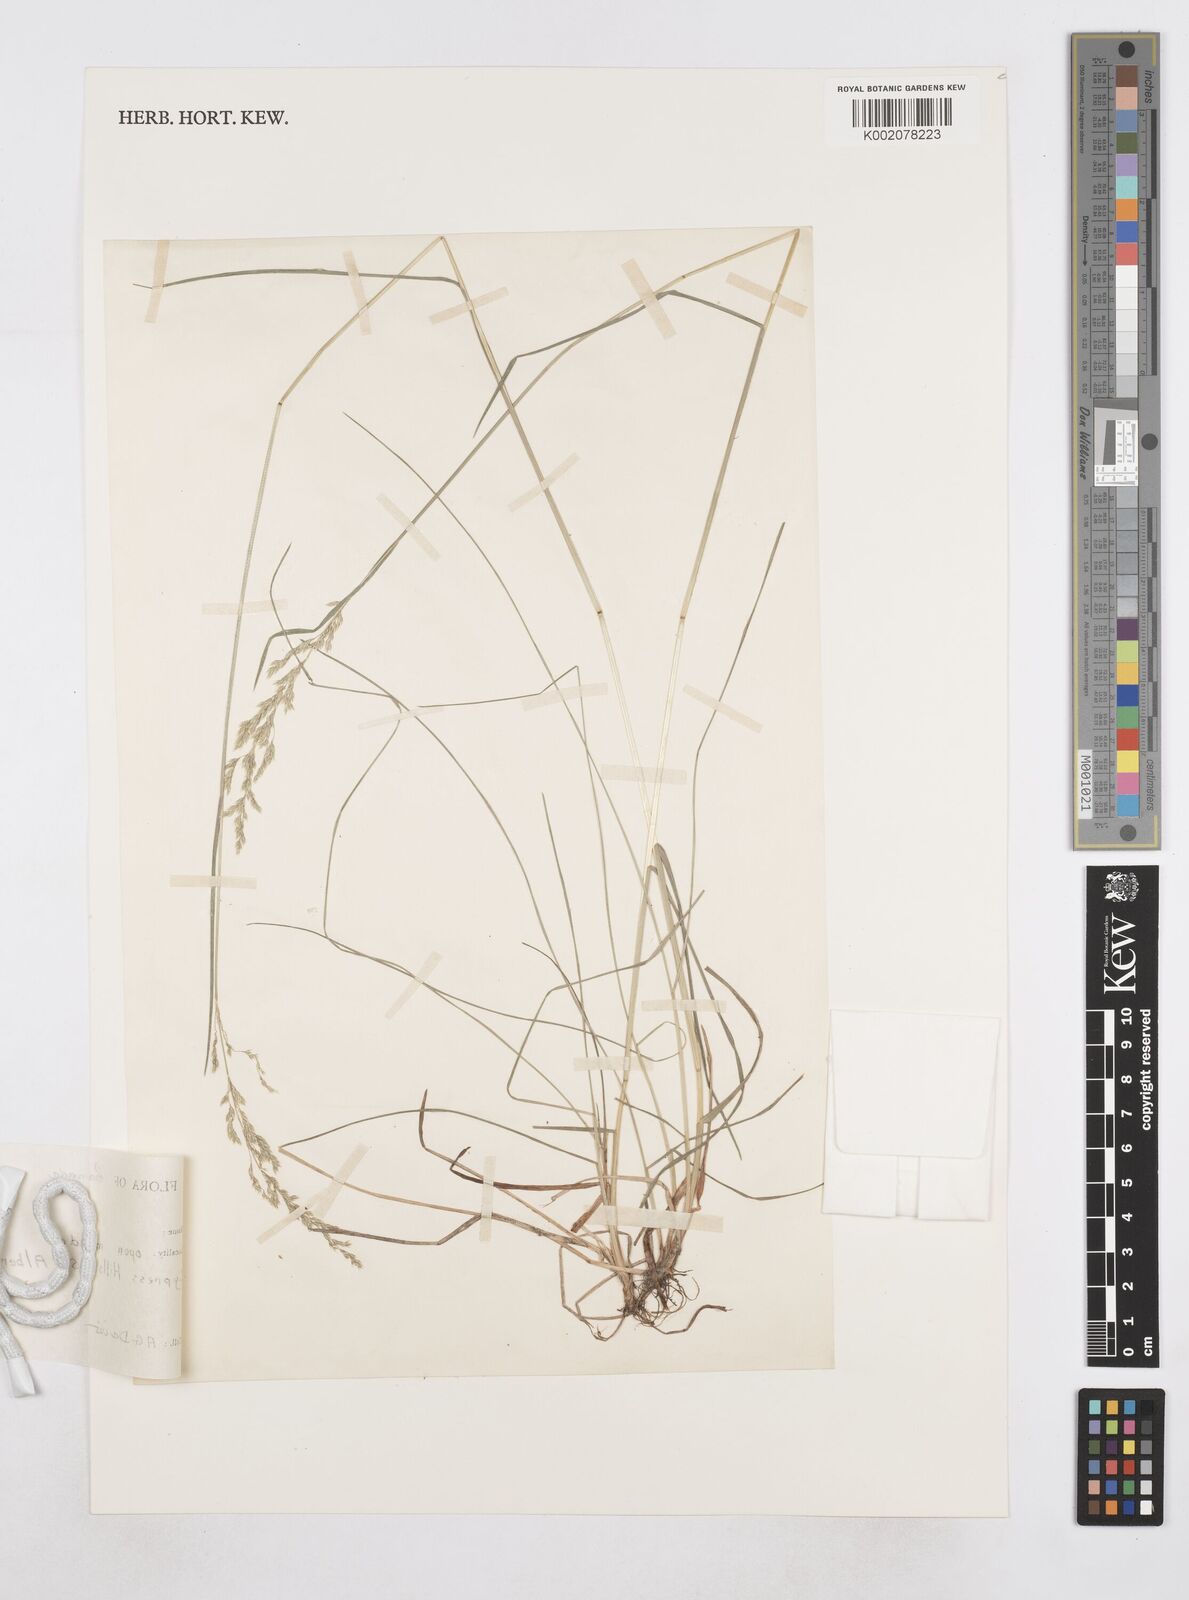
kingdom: Plantae
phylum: Tracheophyta
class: Liliopsida
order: Poales
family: Poaceae
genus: Poa
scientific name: Poa
